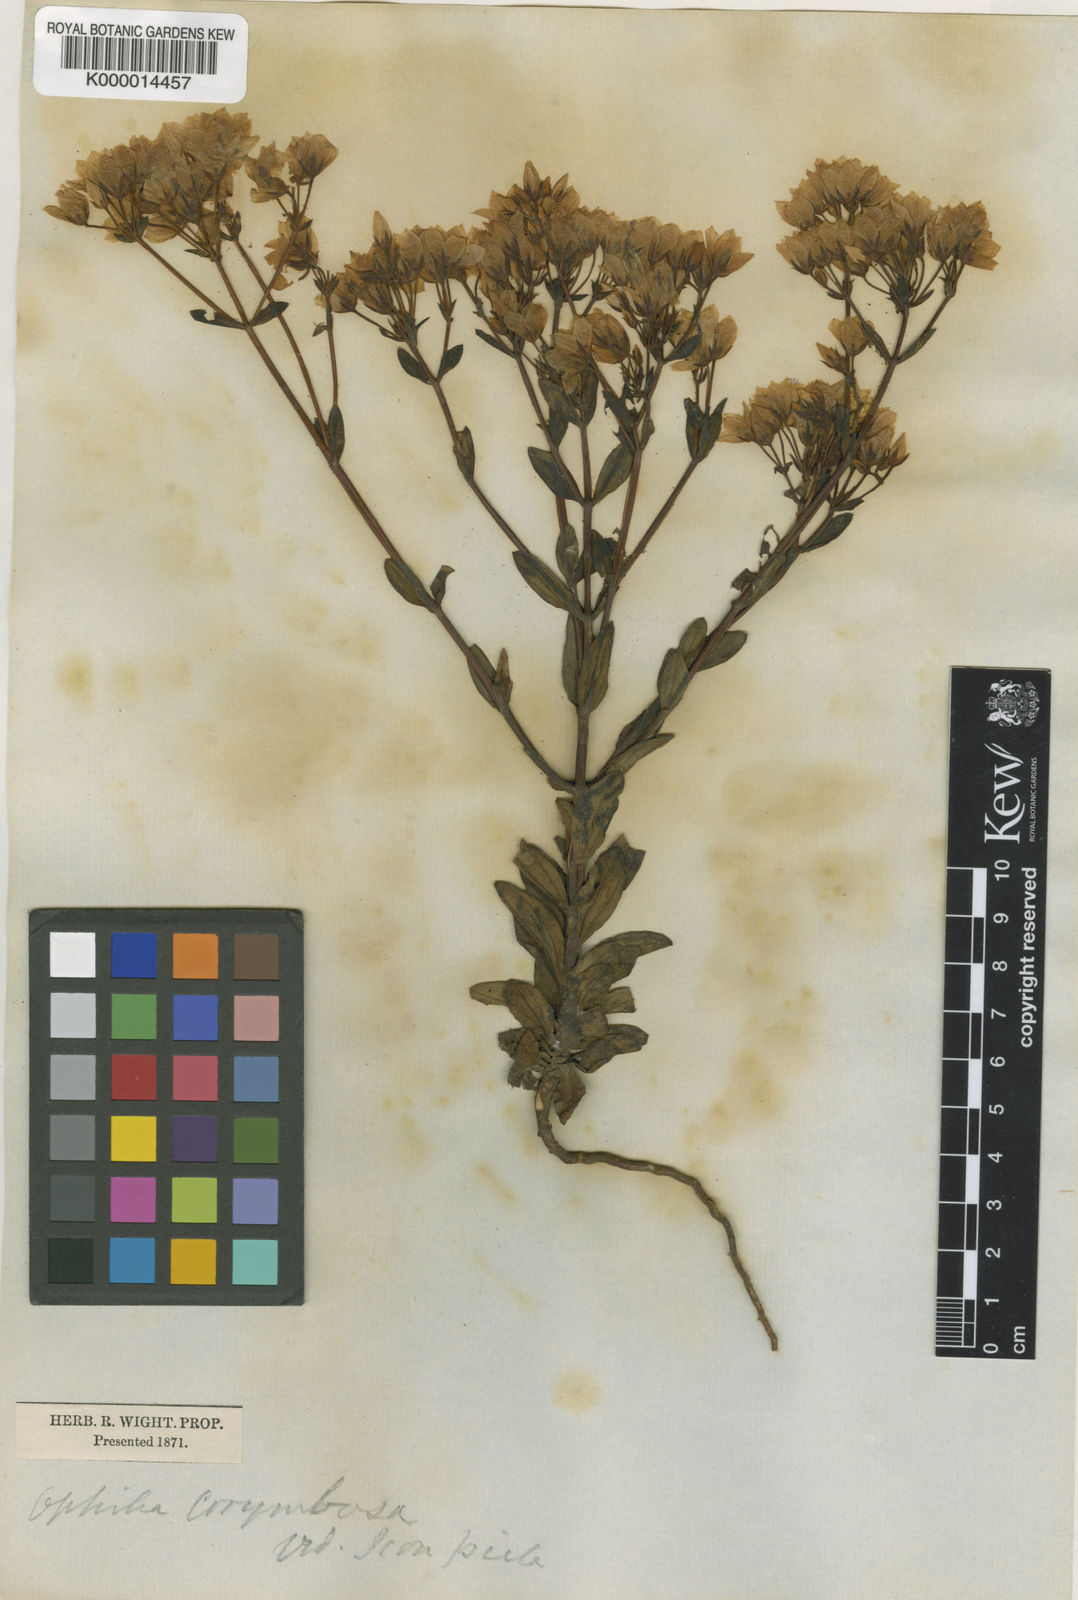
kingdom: Plantae
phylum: Tracheophyta
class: Magnoliopsida
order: Gentianales
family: Gentianaceae
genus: Swertia
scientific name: Swertia
